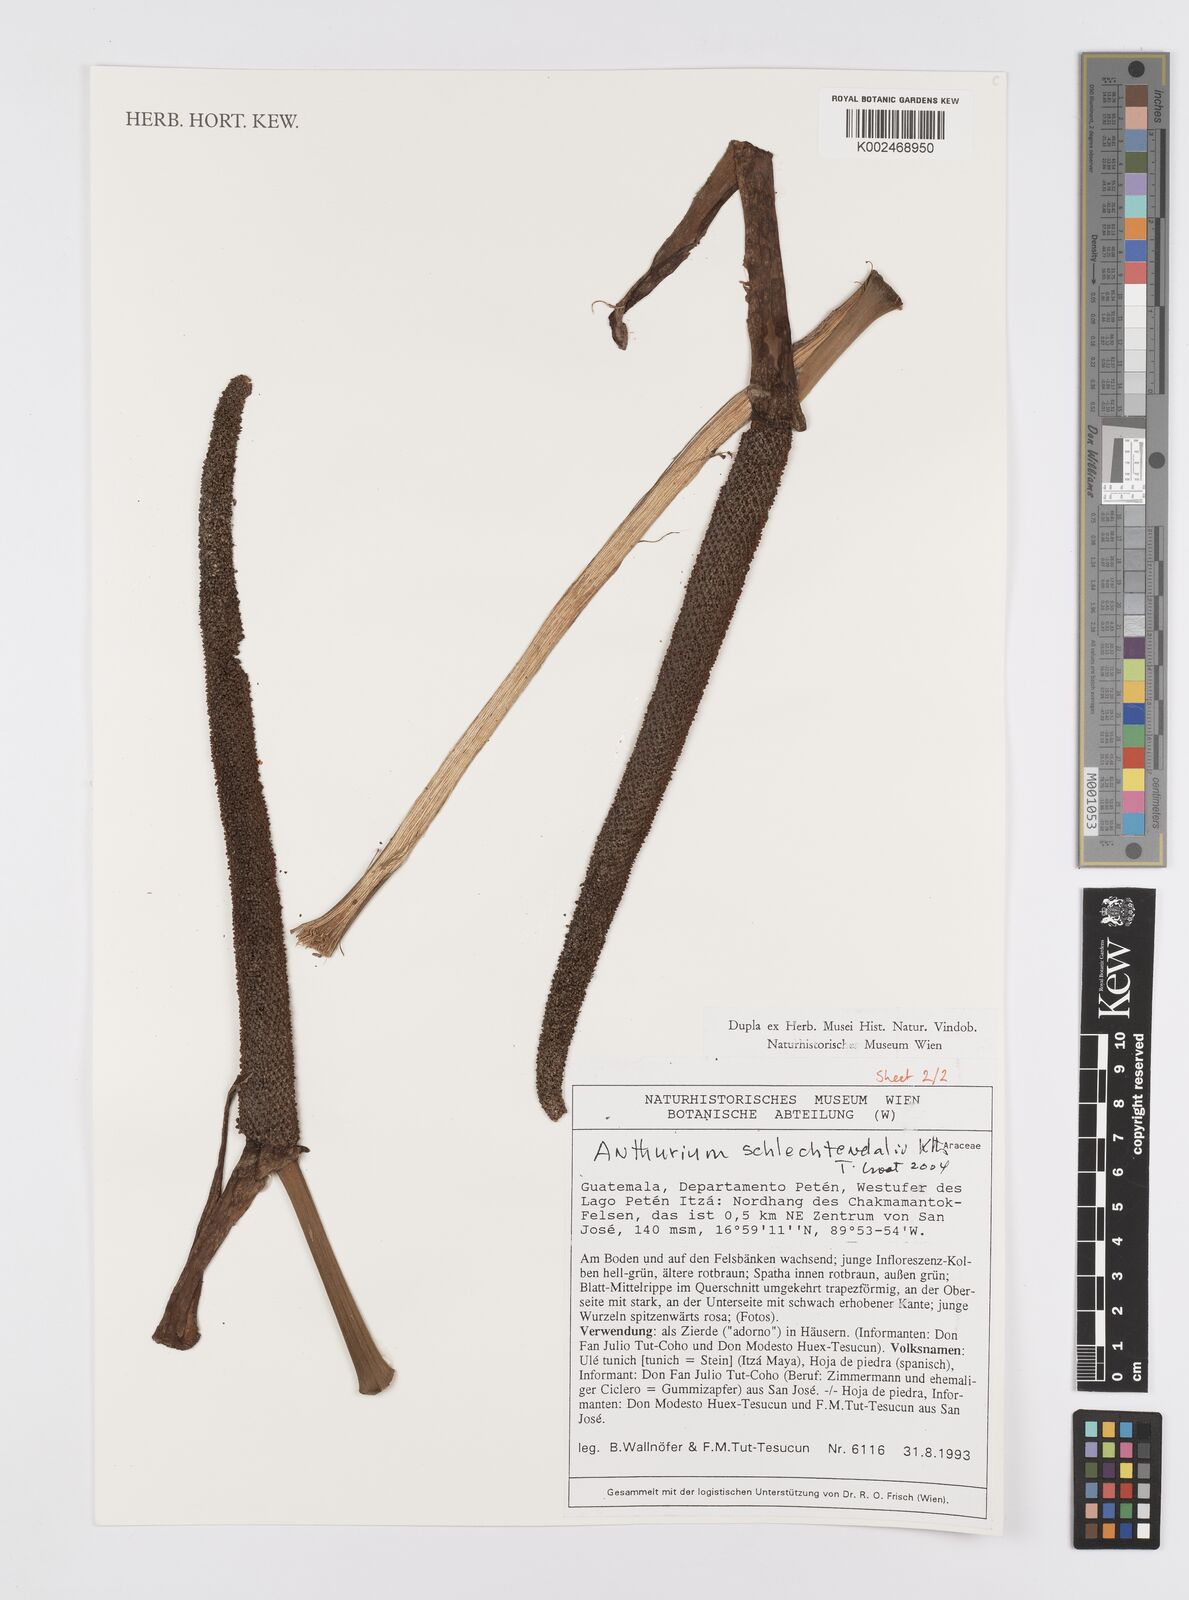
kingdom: Plantae
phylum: Tracheophyta
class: Liliopsida
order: Alismatales
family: Araceae
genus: Anthurium
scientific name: Anthurium schlechtendalii
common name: Laceleaf
